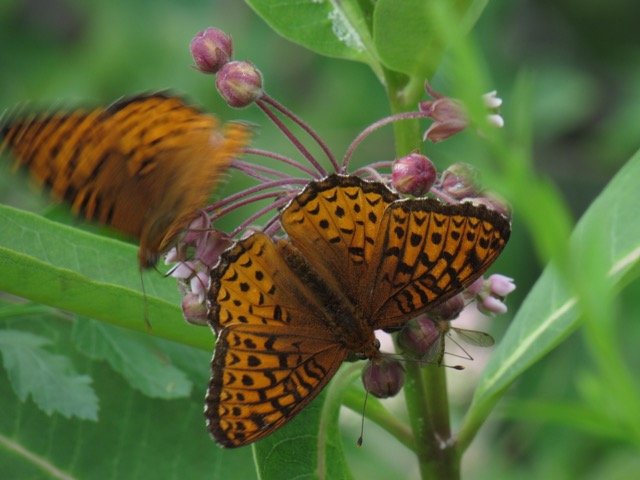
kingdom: Animalia
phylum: Arthropoda
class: Insecta
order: Lepidoptera
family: Nymphalidae
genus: Speyeria
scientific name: Speyeria atlantis
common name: Atlantis Fritillary
